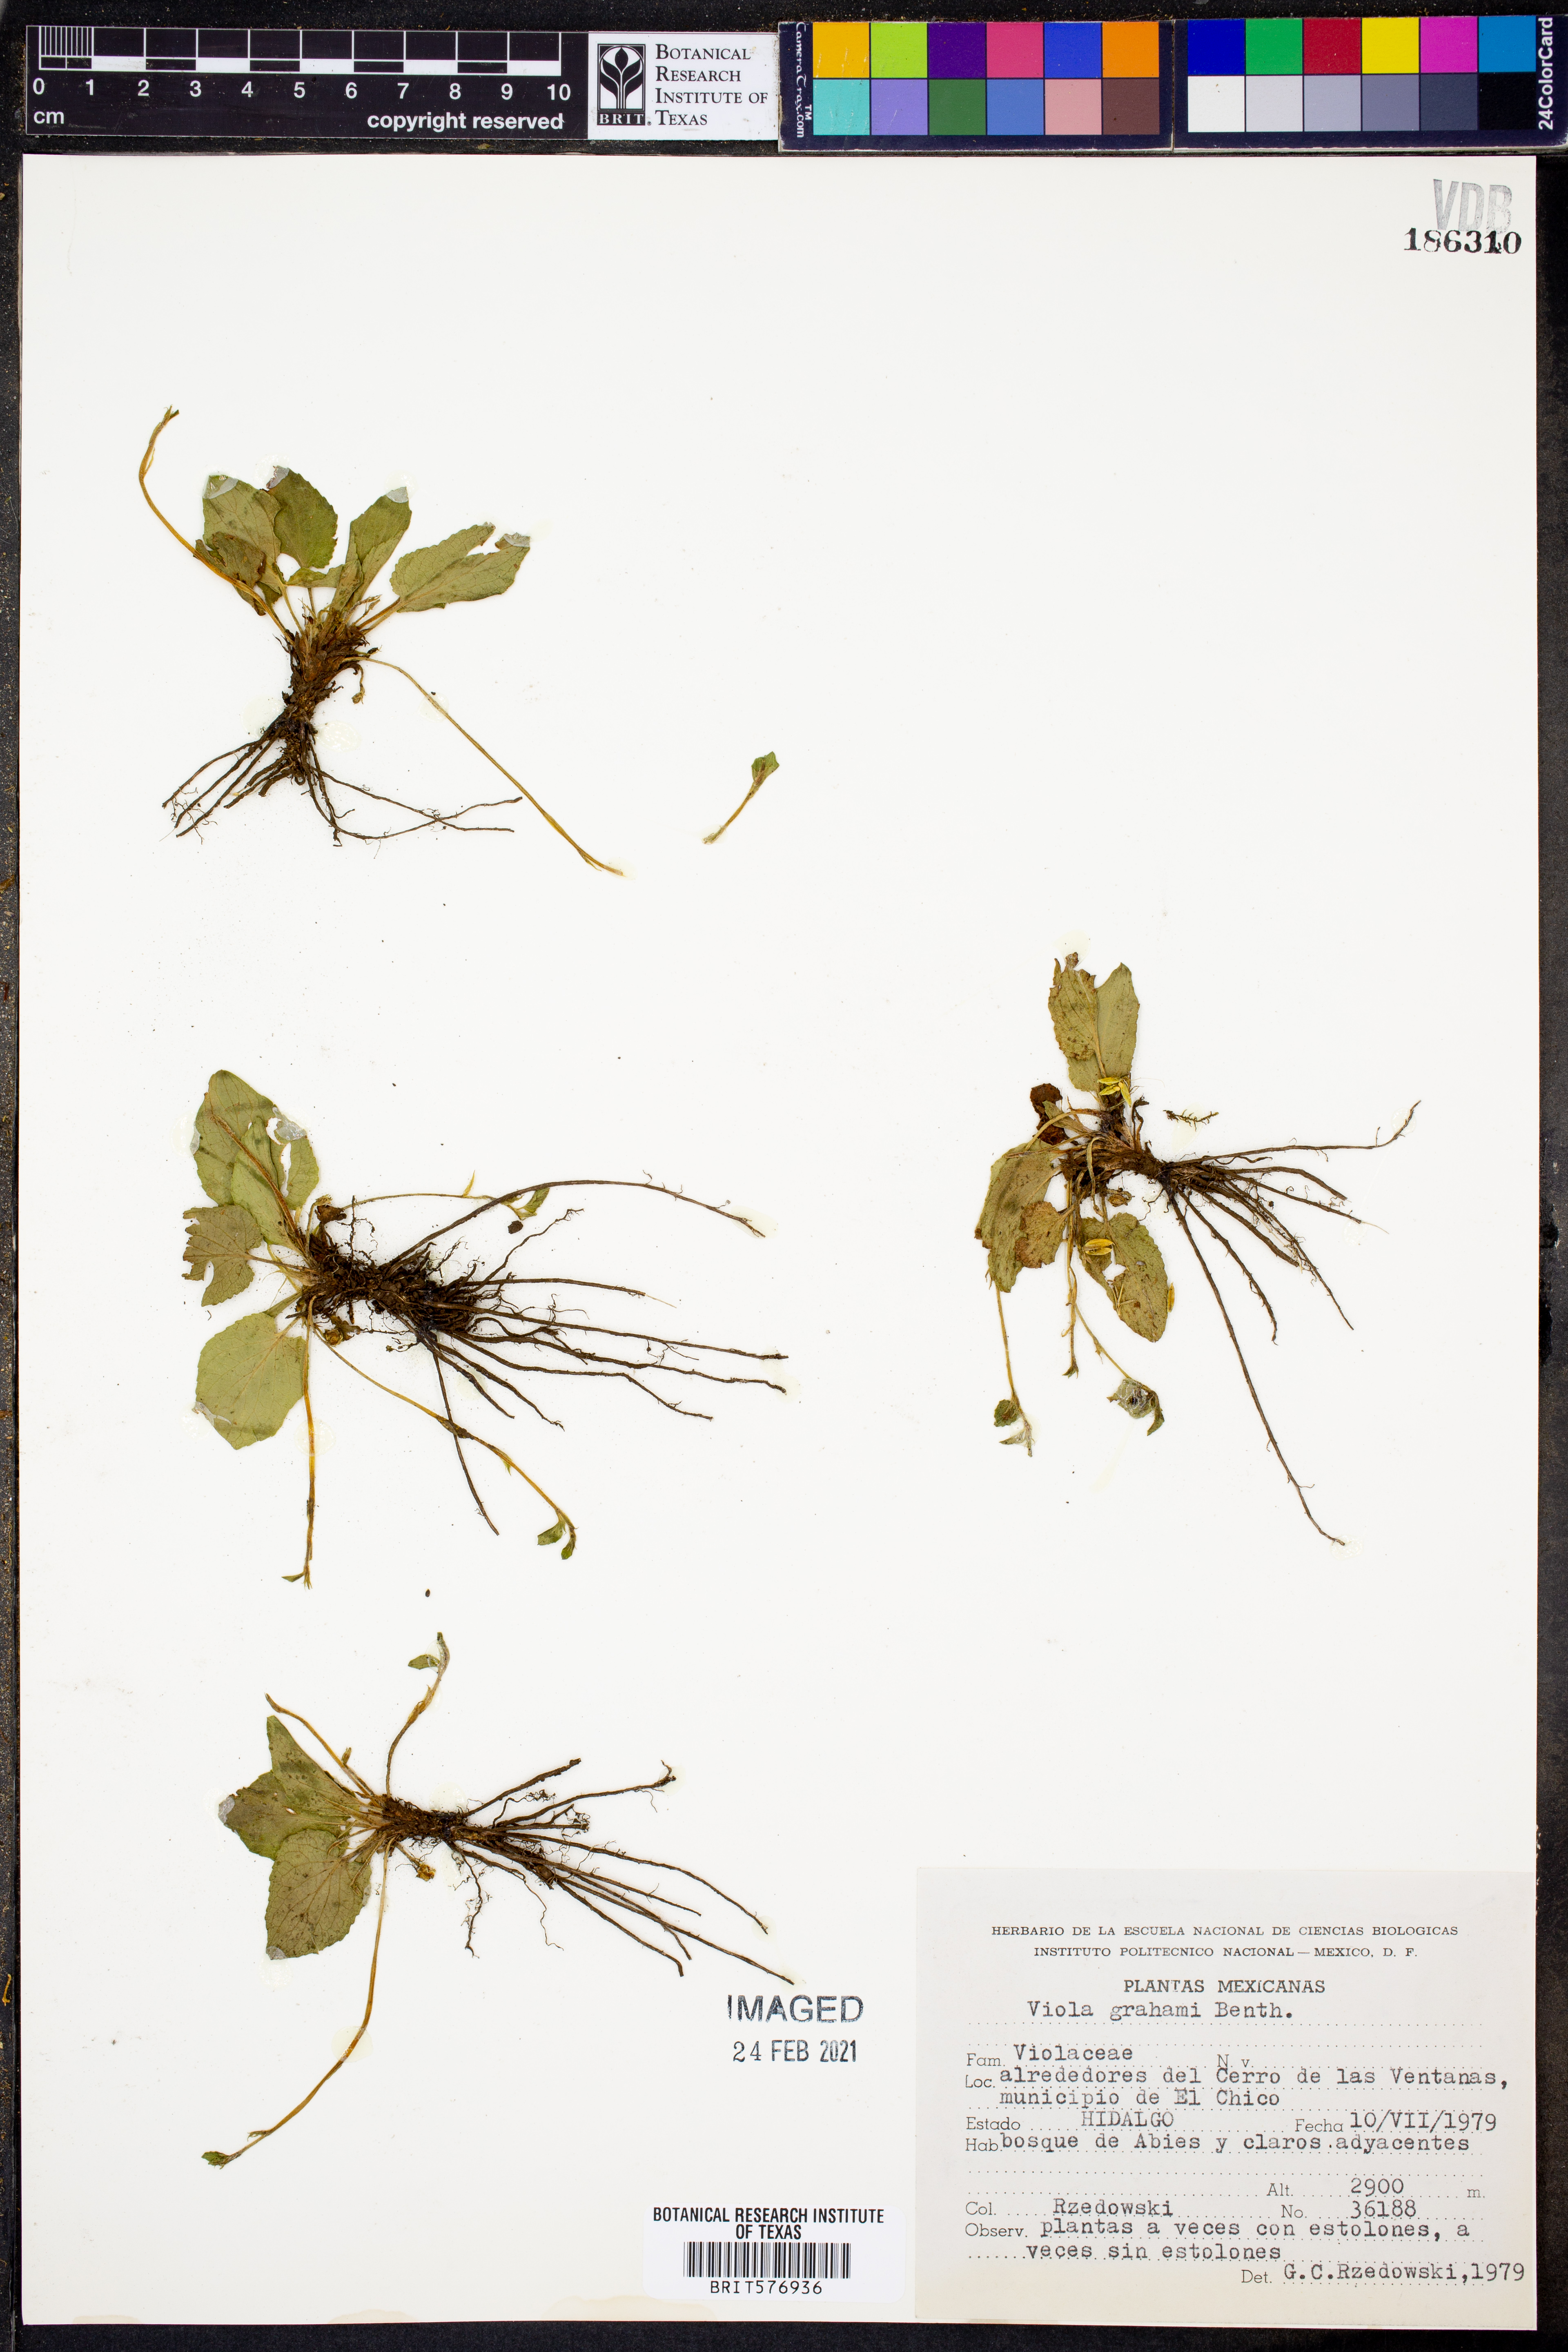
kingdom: Plantae
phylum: Tracheophyta
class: Magnoliopsida
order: Malpighiales
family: Violaceae
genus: Viola
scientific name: Viola grahamii
